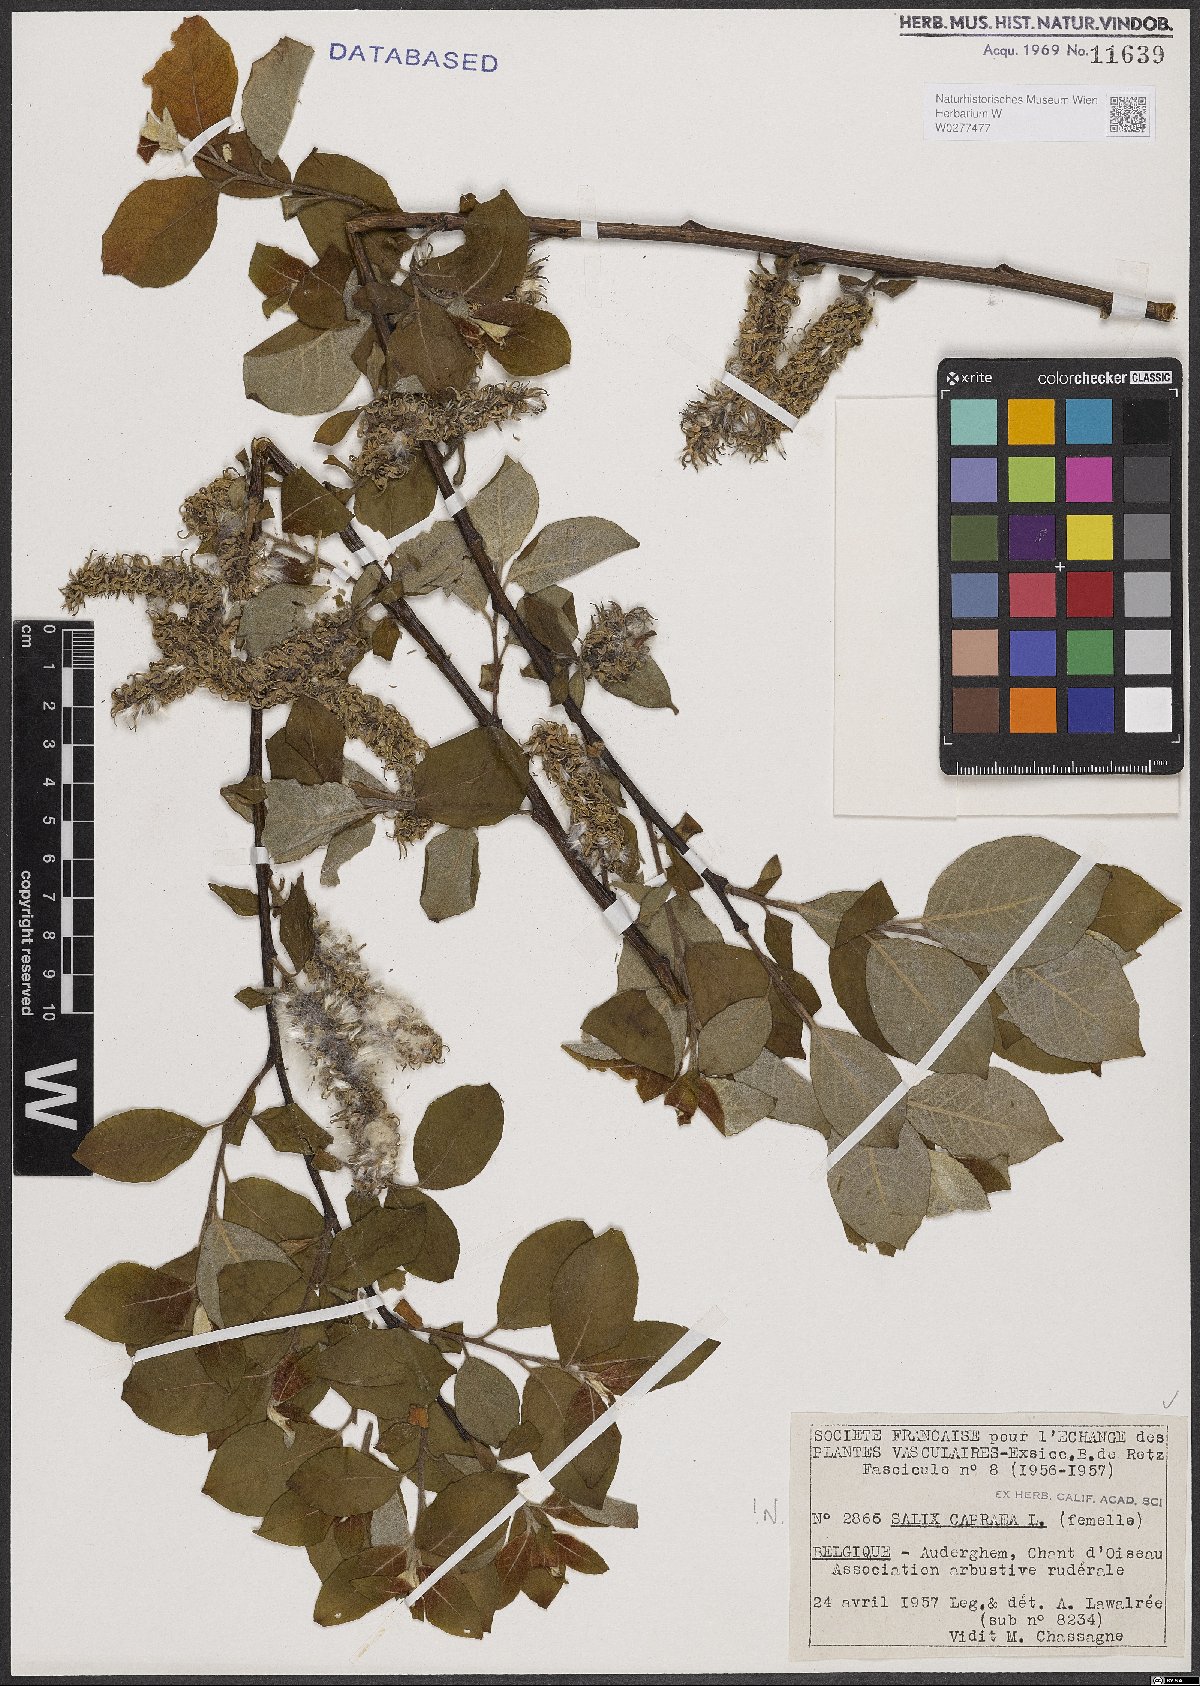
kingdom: Plantae
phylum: Tracheophyta
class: Magnoliopsida
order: Malpighiales
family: Salicaceae
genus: Salix
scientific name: Salix caprea
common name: Goat willow
